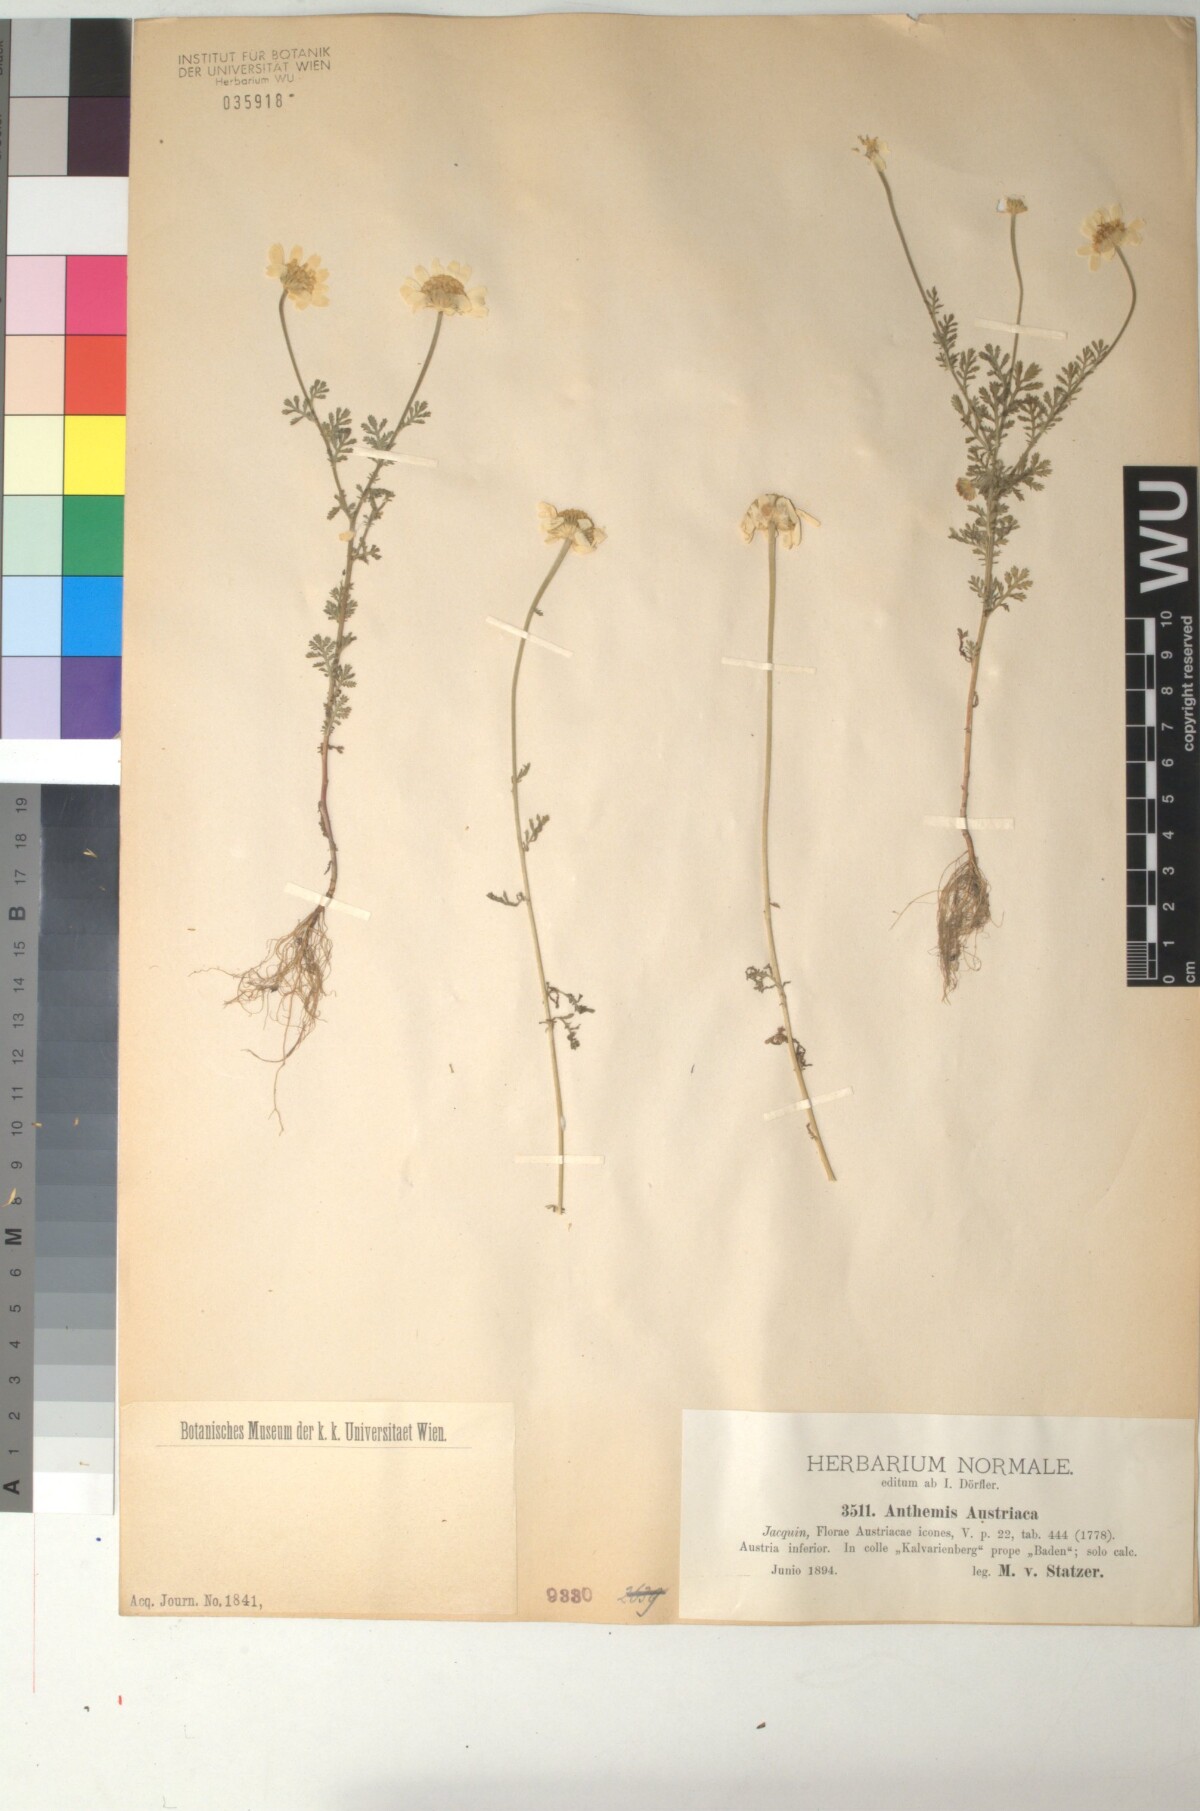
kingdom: Plantae
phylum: Tracheophyta
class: Magnoliopsida
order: Asterales
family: Asteraceae
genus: Cota
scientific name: Cota austriaca
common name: Austrian chamomile
